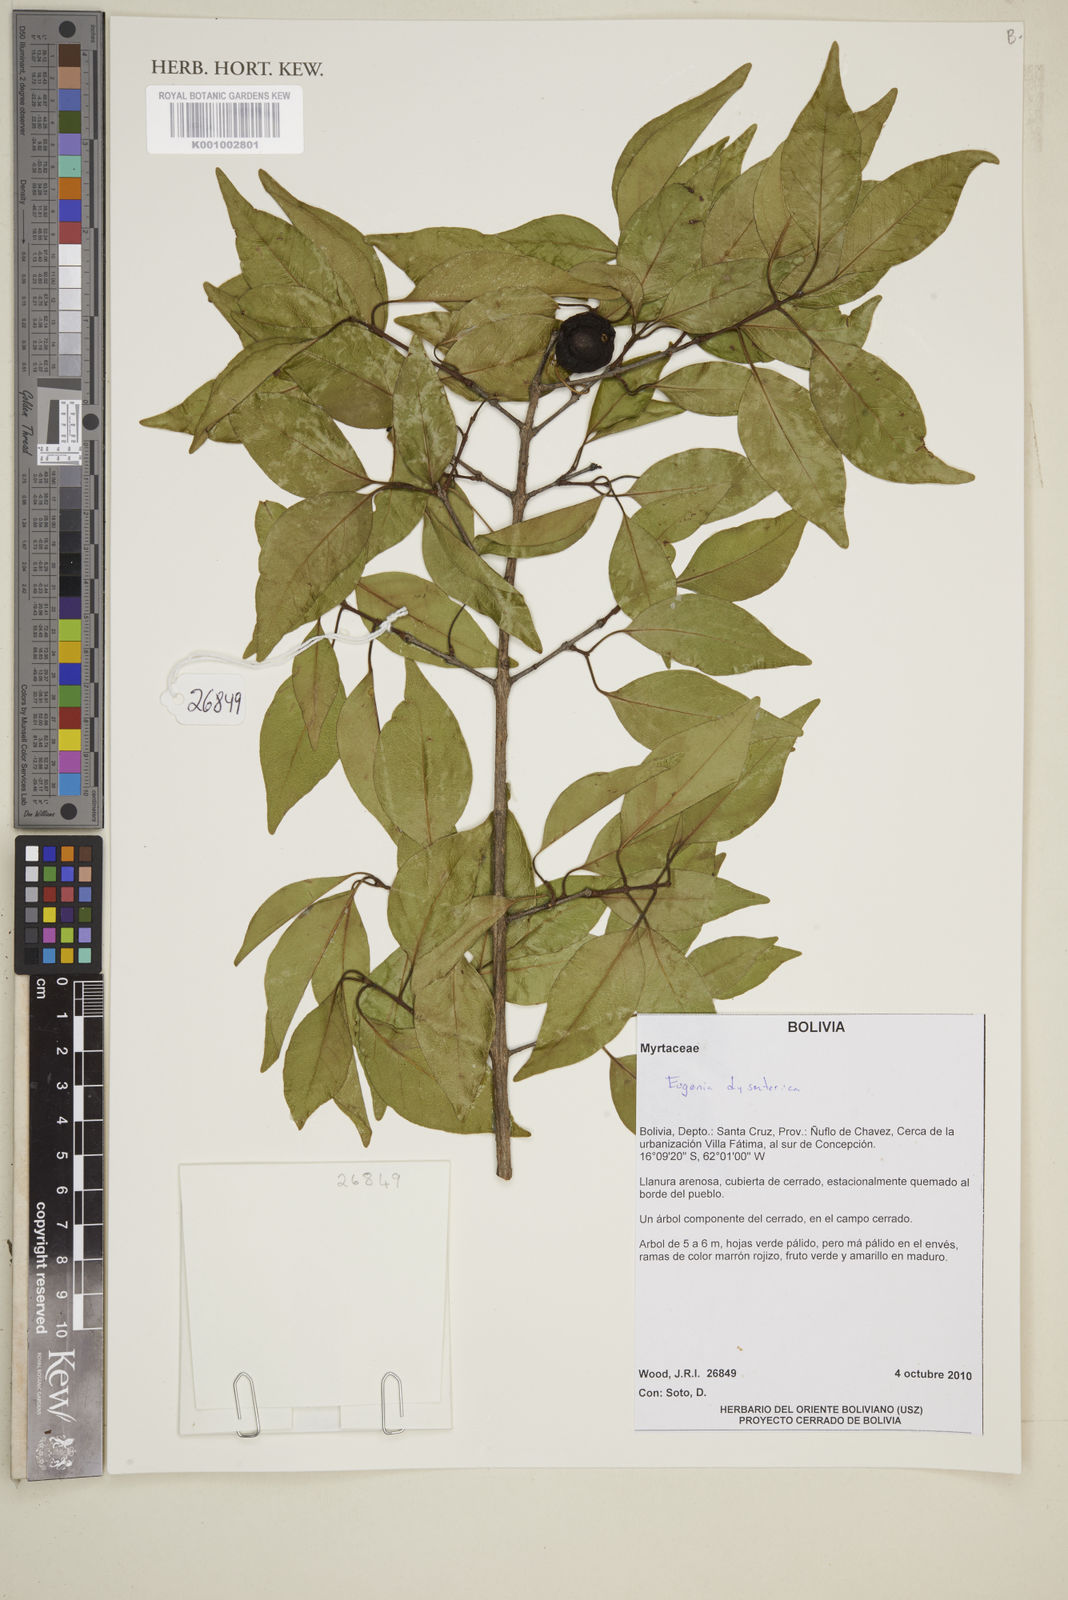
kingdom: Plantae
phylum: Tracheophyta
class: Magnoliopsida
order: Myrtales
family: Myrtaceae
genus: Eugenia
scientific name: Eugenia dysenterica
